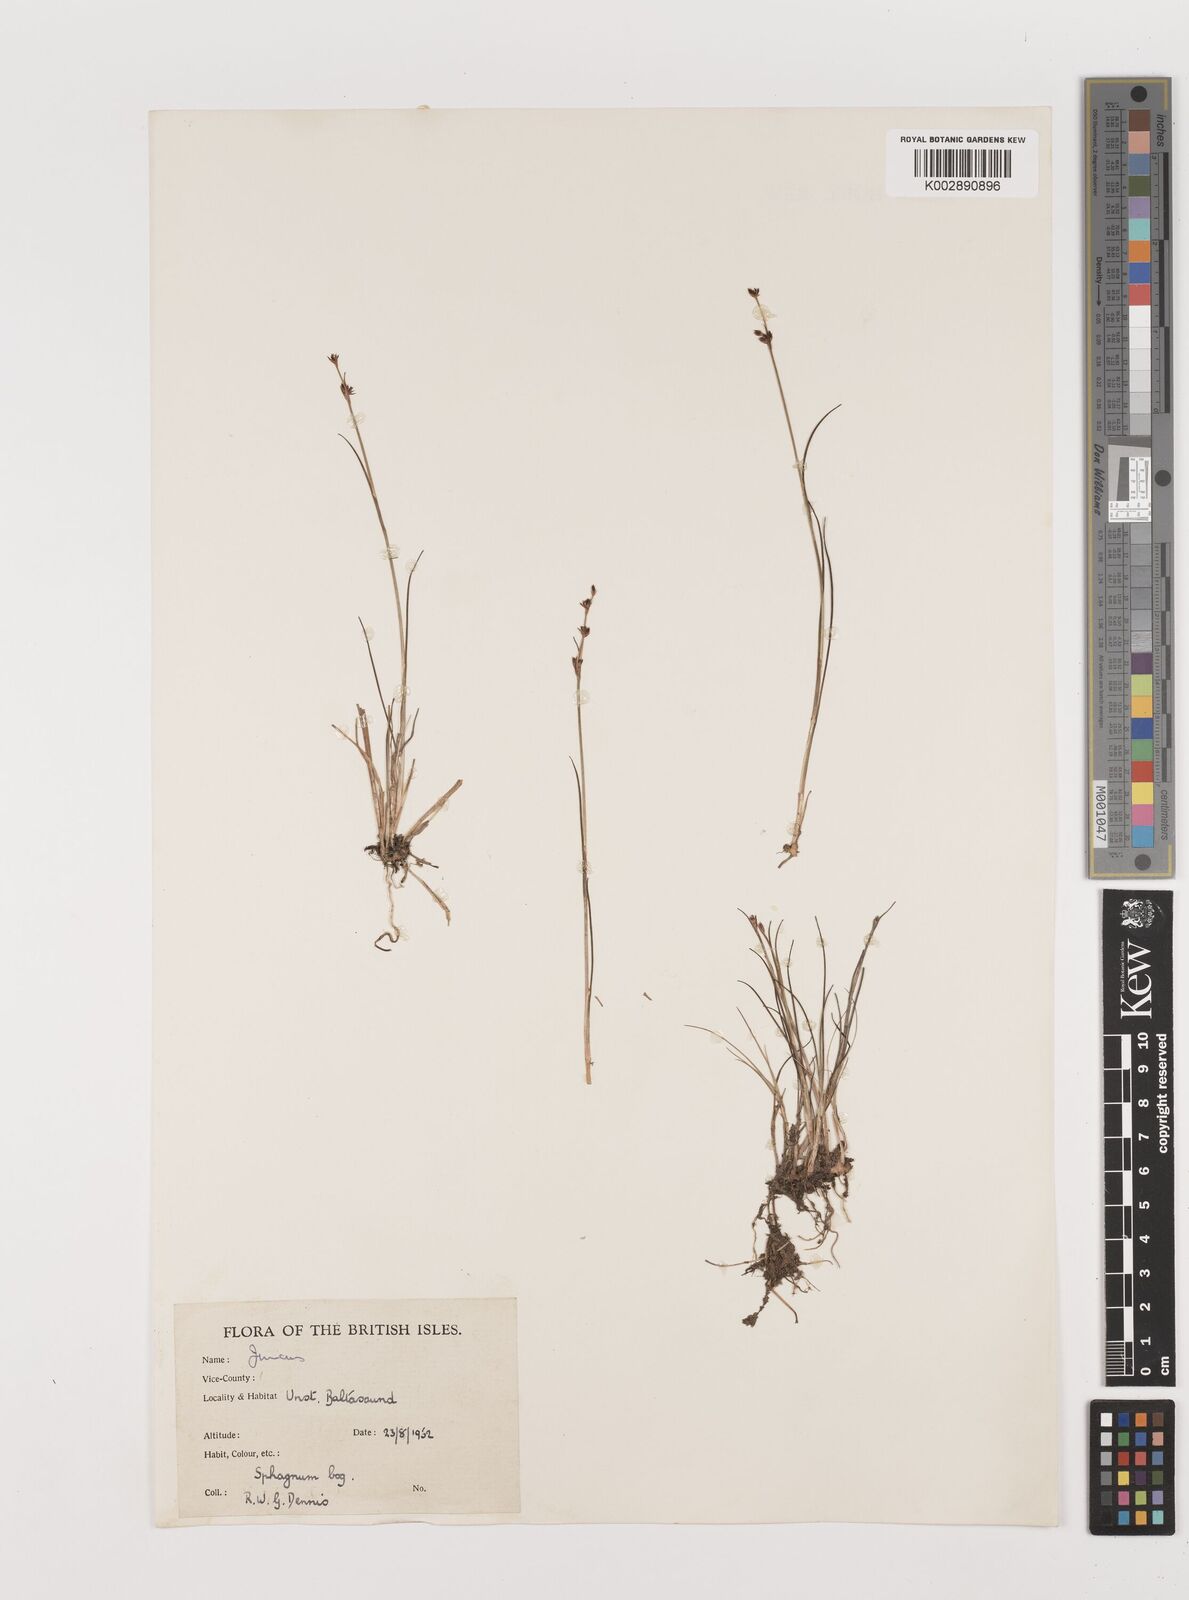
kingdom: Plantae
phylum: Tracheophyta
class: Liliopsida
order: Poales
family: Juncaceae
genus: Juncus
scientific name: Juncus
